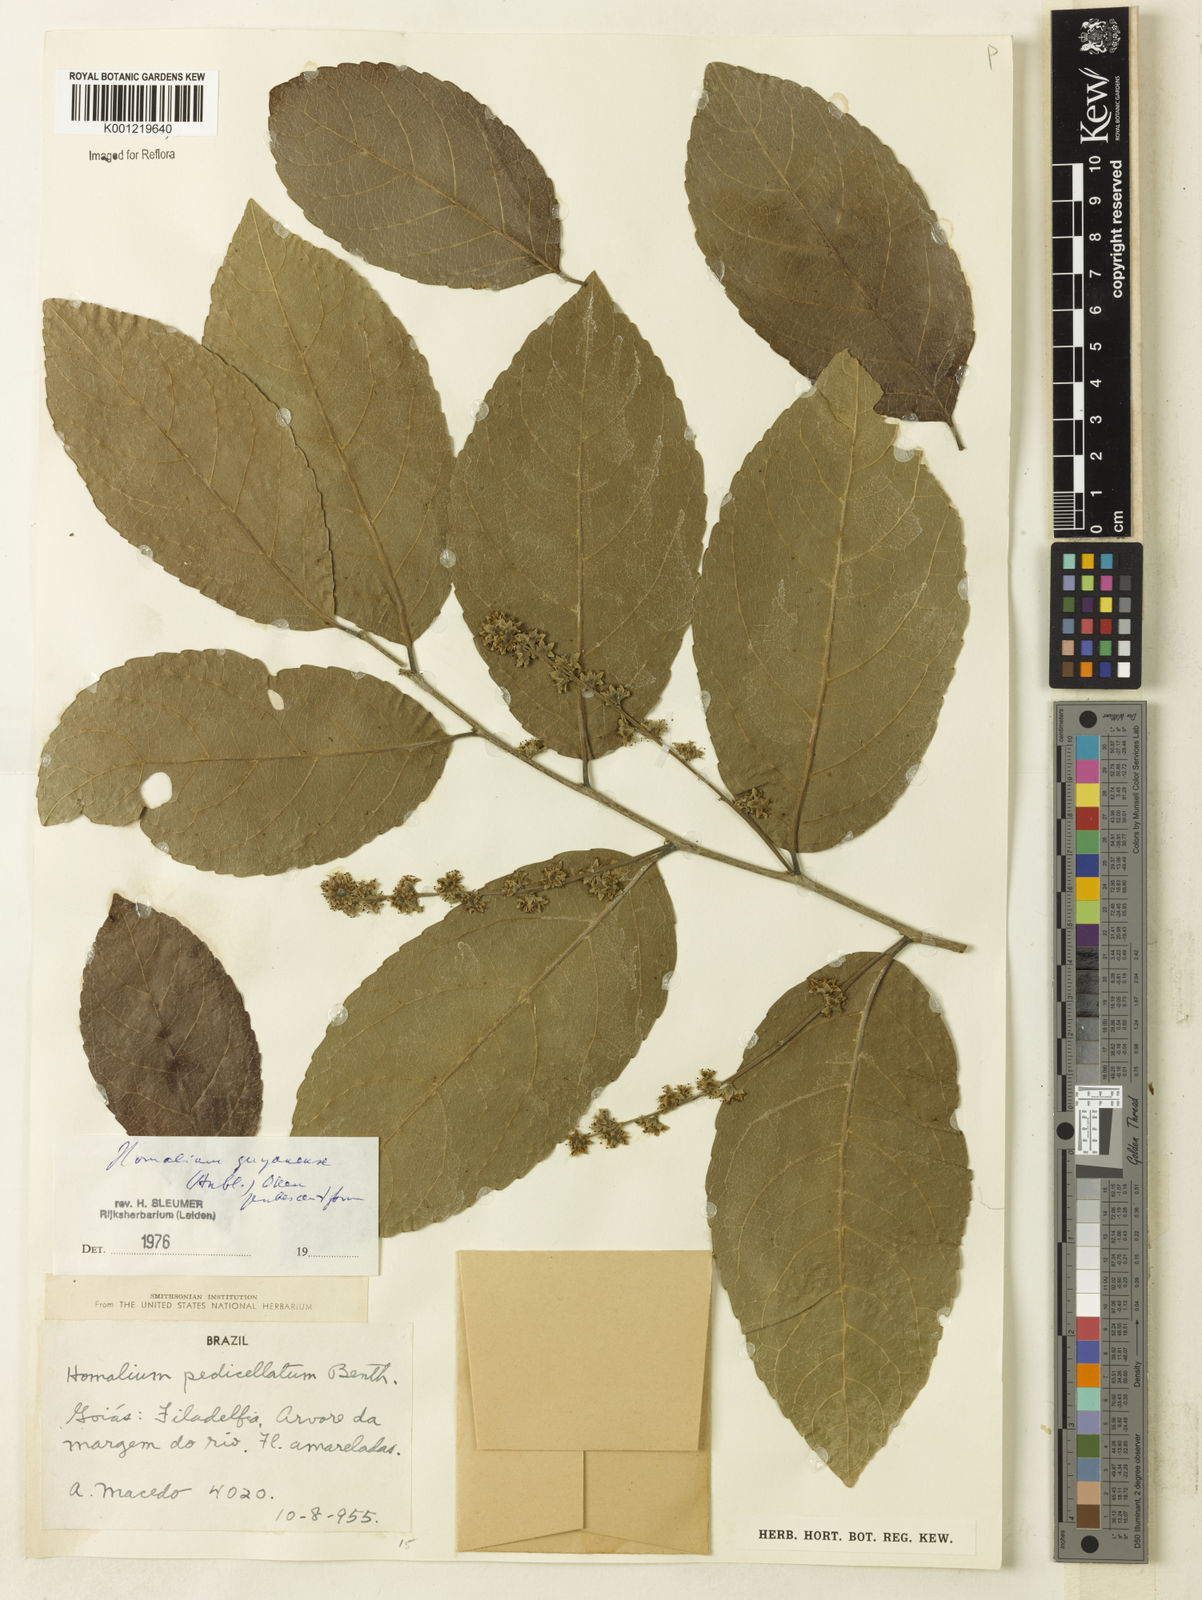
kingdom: Plantae
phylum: Tracheophyta
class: Magnoliopsida
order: Malpighiales
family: Salicaceae
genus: Homalium
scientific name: Homalium guianense
